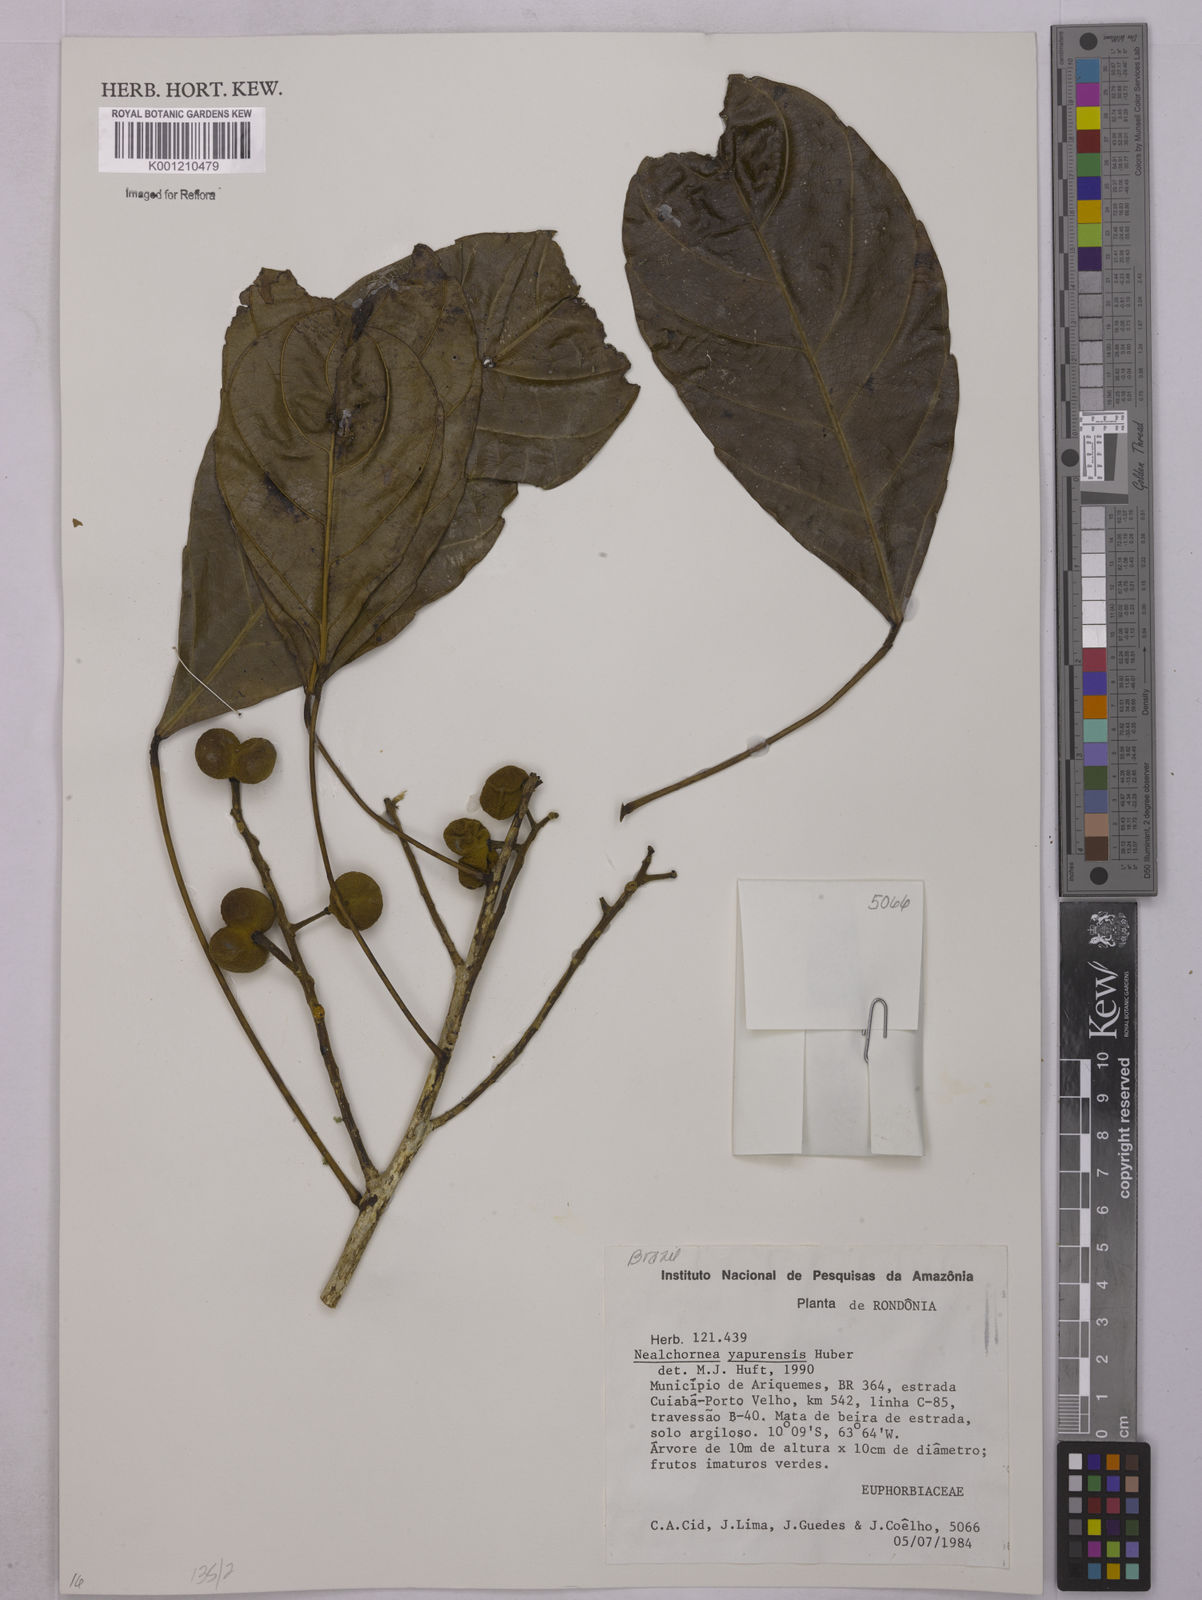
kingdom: Plantae
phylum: Tracheophyta
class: Magnoliopsida
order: Malpighiales
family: Euphorbiaceae
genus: Nealchornea
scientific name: Nealchornea yapurensis
